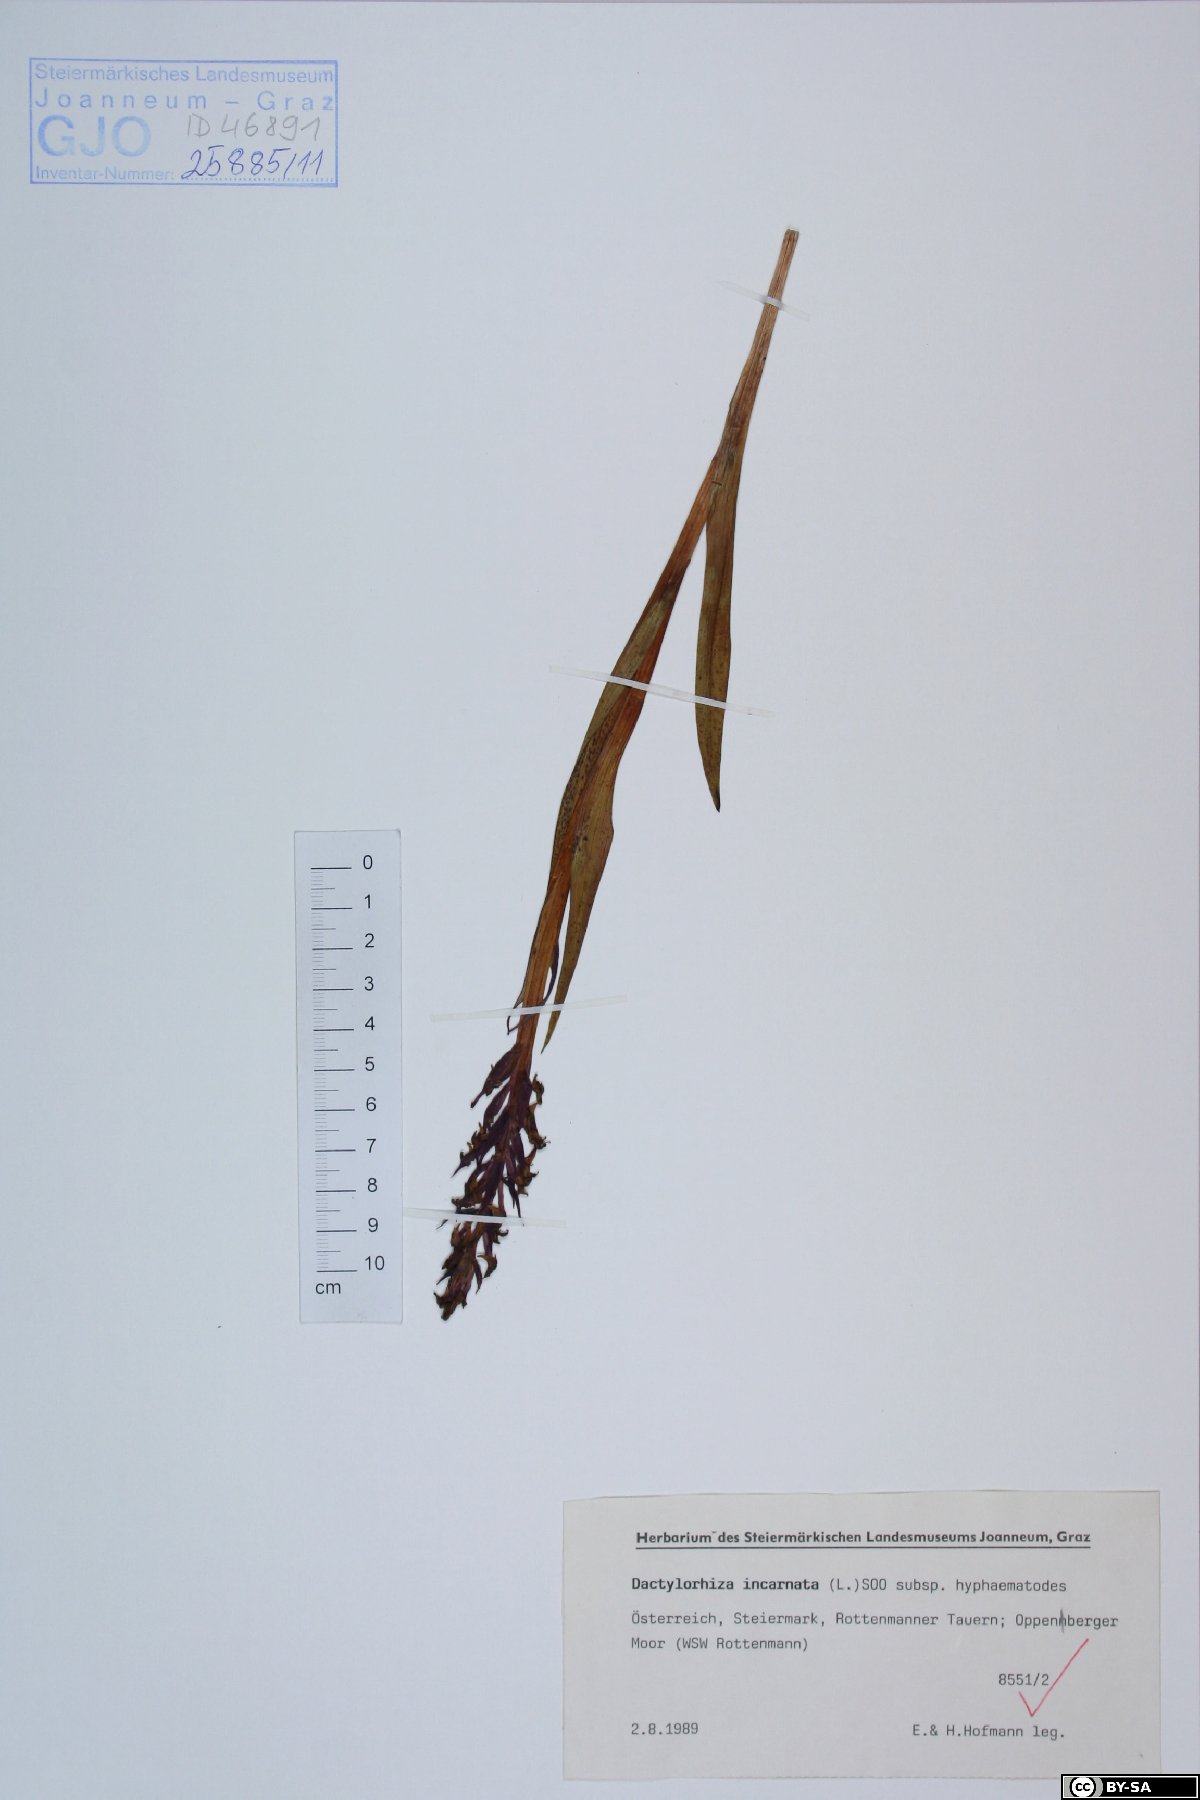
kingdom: Plantae
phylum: Tracheophyta
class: Liliopsida
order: Asparagales
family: Orchidaceae
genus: Dactylorhiza
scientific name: Dactylorhiza incarnata
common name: Early marsh-orchid
